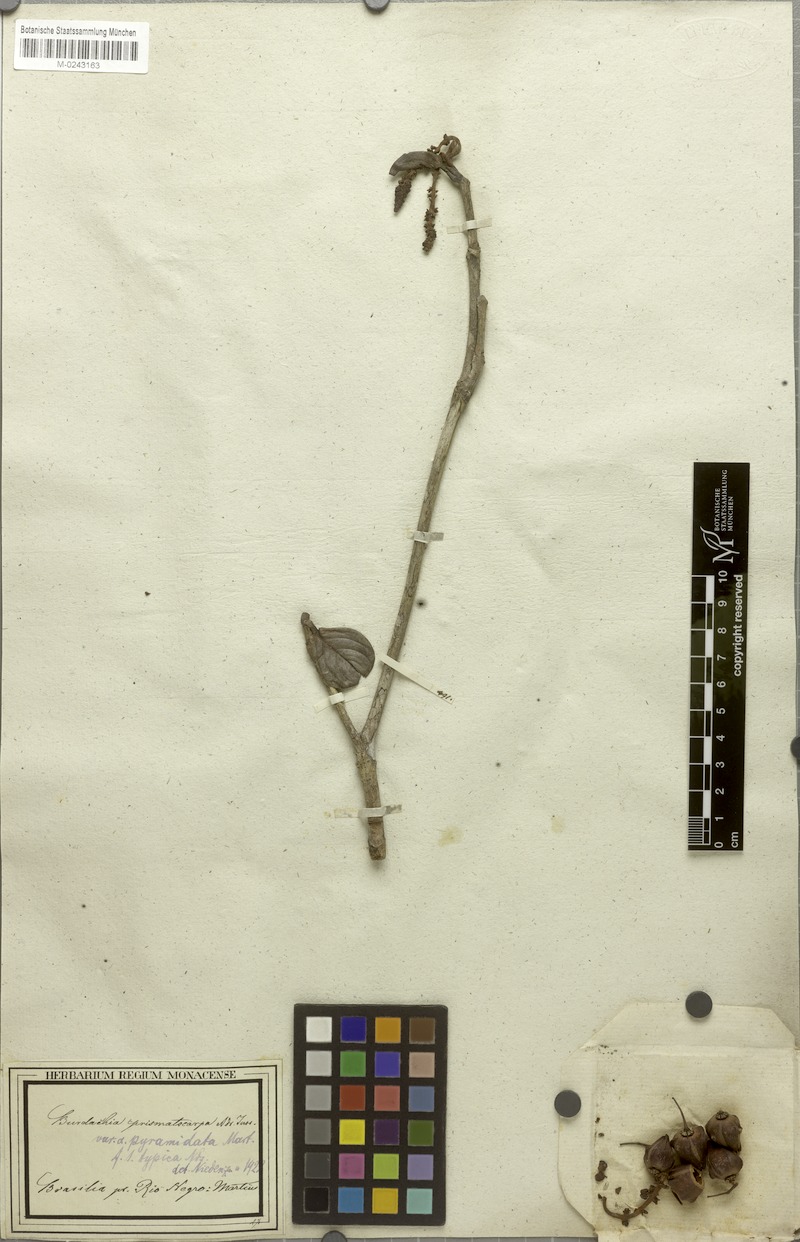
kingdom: Plantae
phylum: Tracheophyta
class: Magnoliopsida
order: Malpighiales
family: Malpighiaceae
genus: Burdachia
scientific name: Burdachia prismatocarpa
